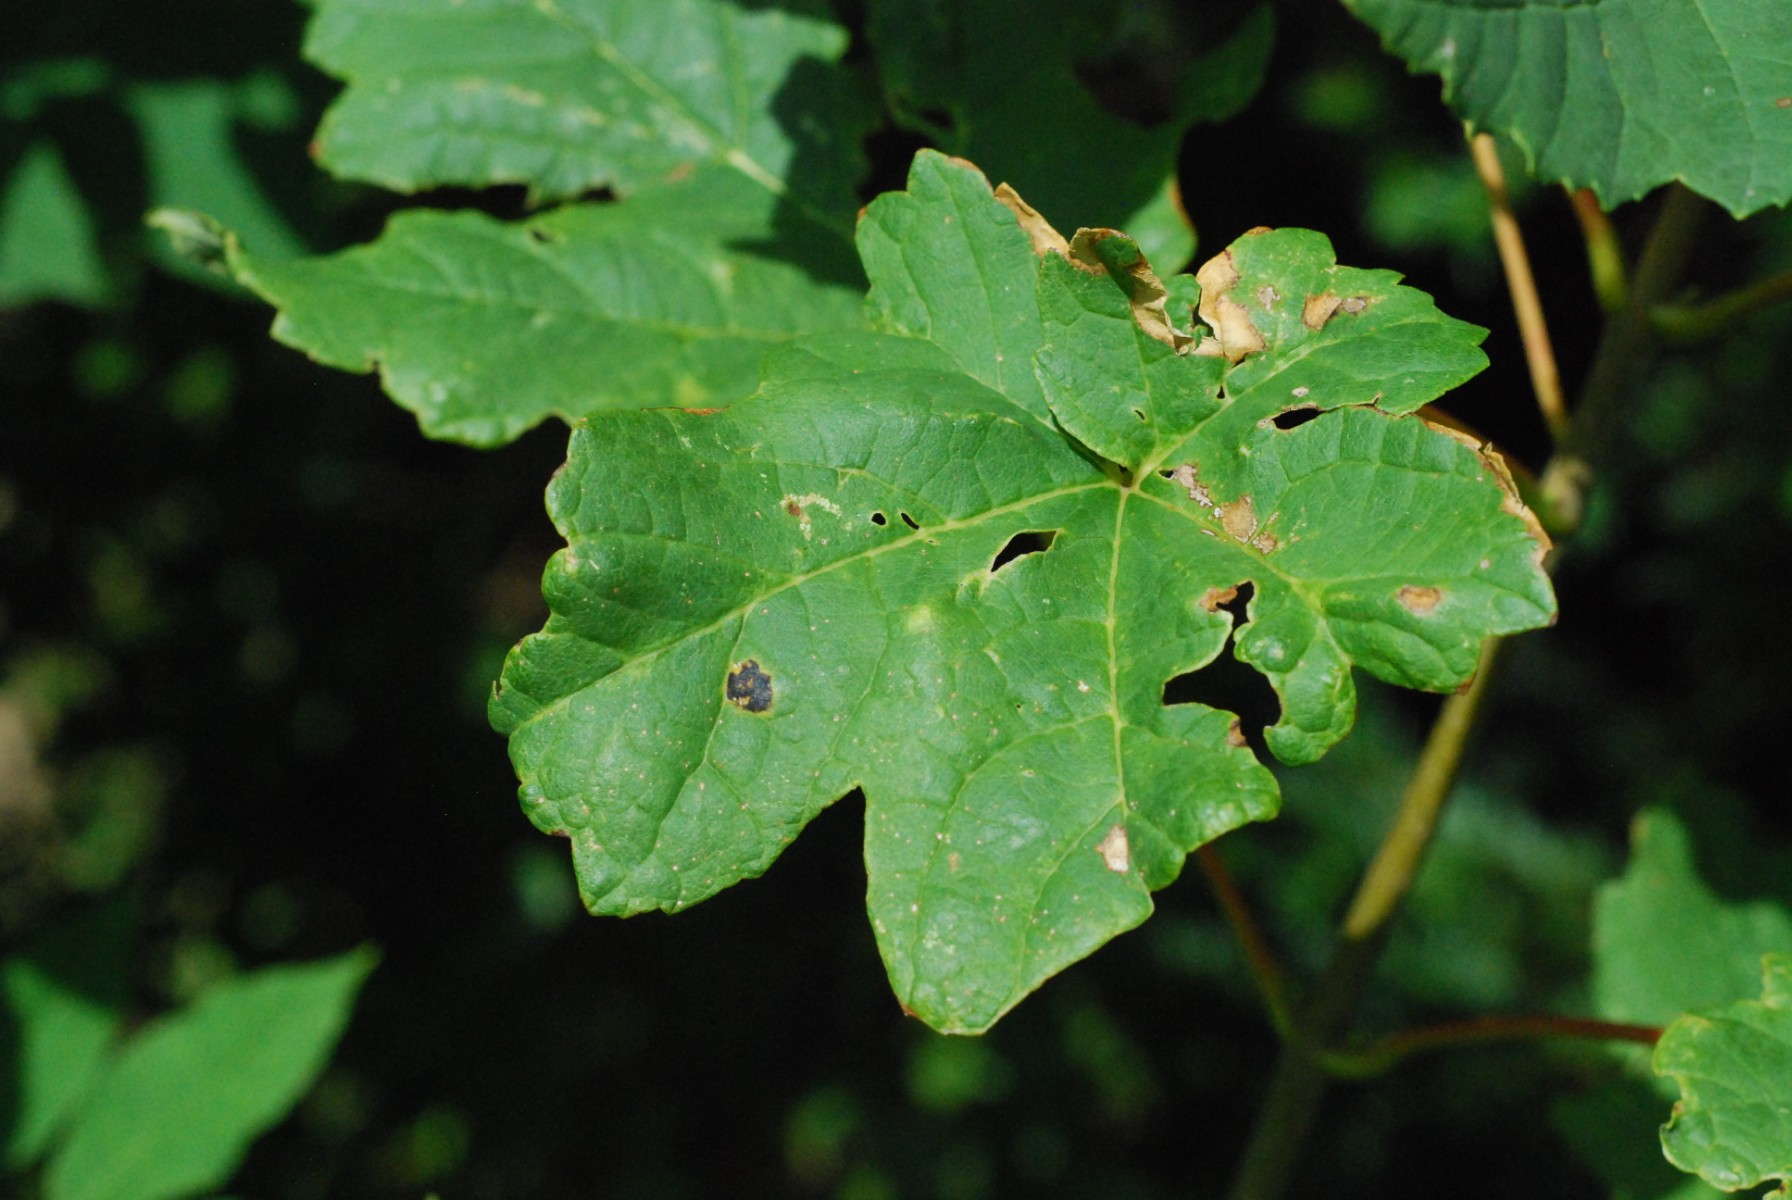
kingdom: Fungi
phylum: Ascomycota
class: Leotiomycetes
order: Rhytismatales
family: Rhytismataceae
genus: Rhytisma
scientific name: Rhytisma acerinum
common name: ahorn-rynkeplet
